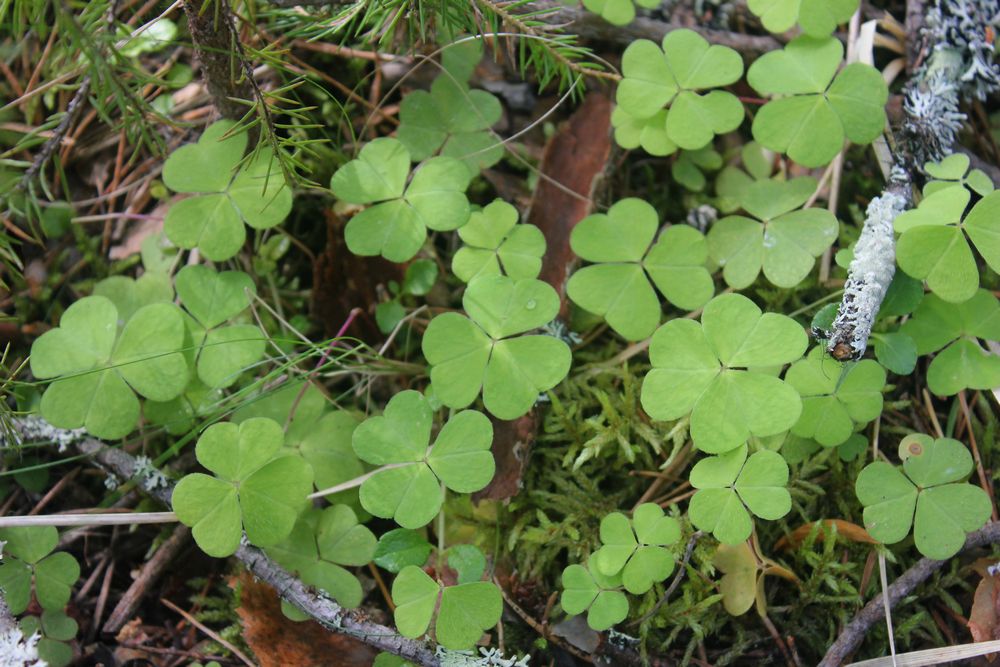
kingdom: Plantae
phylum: Tracheophyta
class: Magnoliopsida
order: Oxalidales
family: Oxalidaceae
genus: Oxalis
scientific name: Oxalis acetosella
